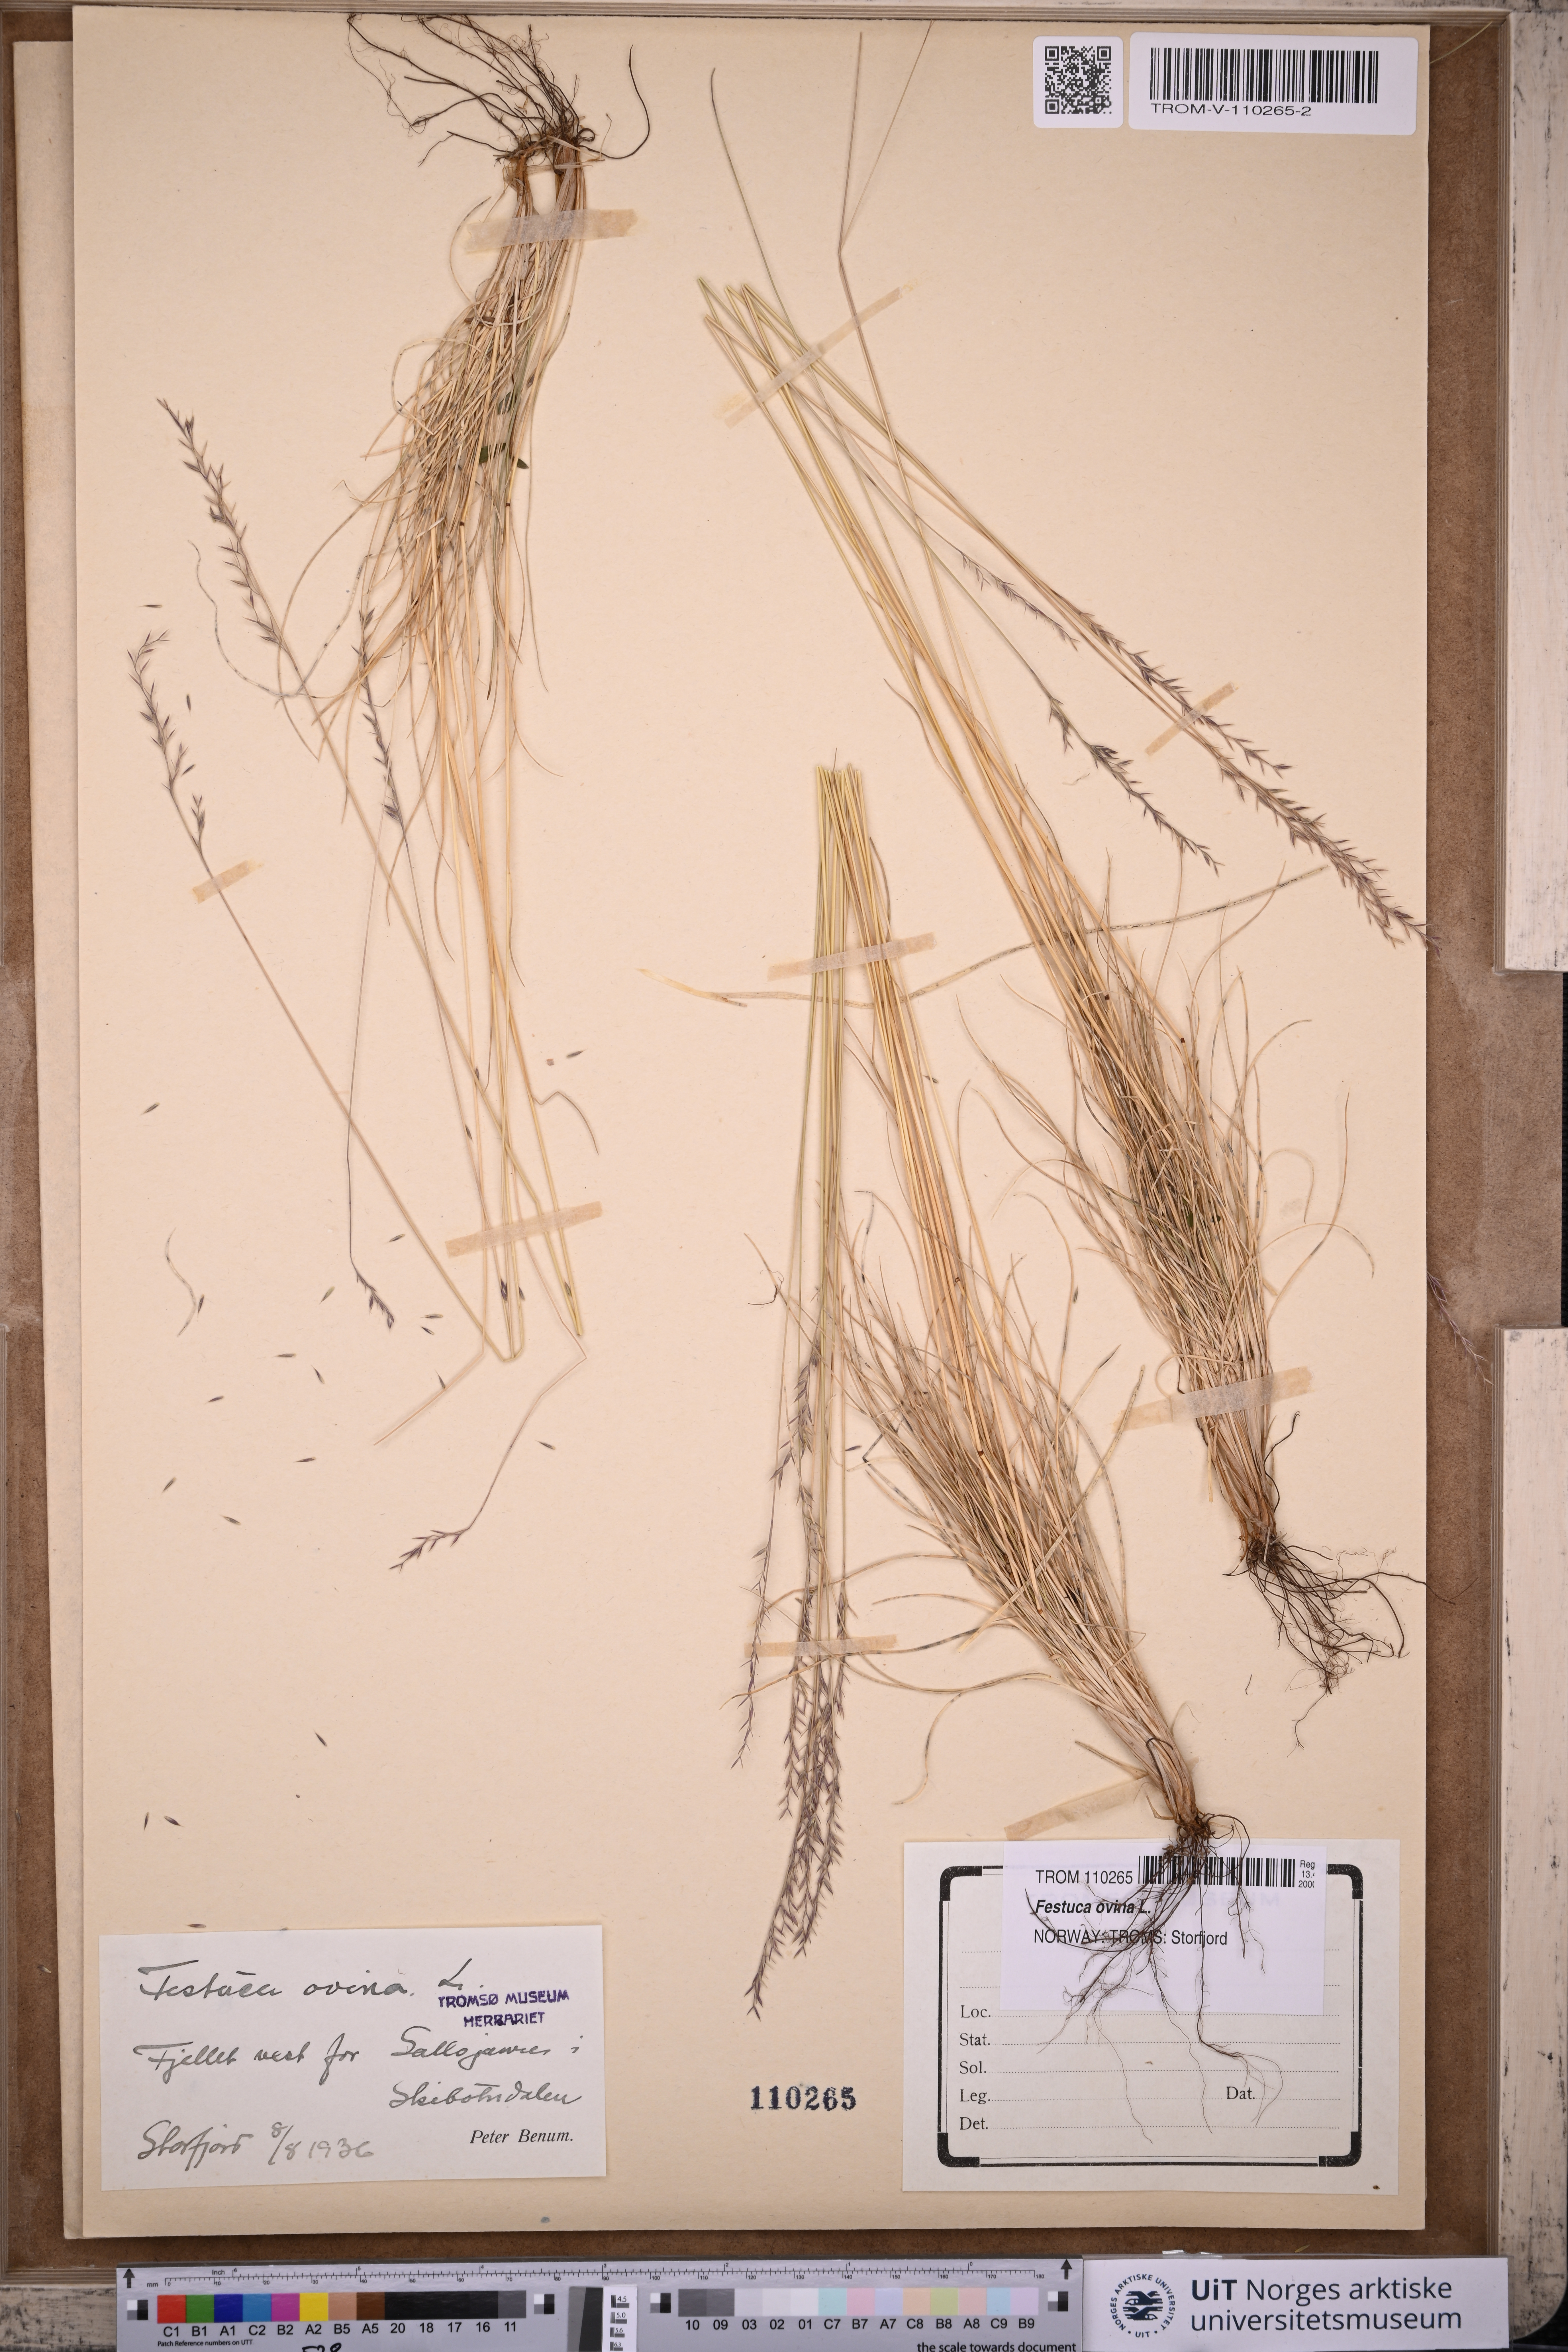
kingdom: Plantae
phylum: Tracheophyta
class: Liliopsida
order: Poales
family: Poaceae
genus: Festuca
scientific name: Festuca ovina
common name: Sheep fescue
